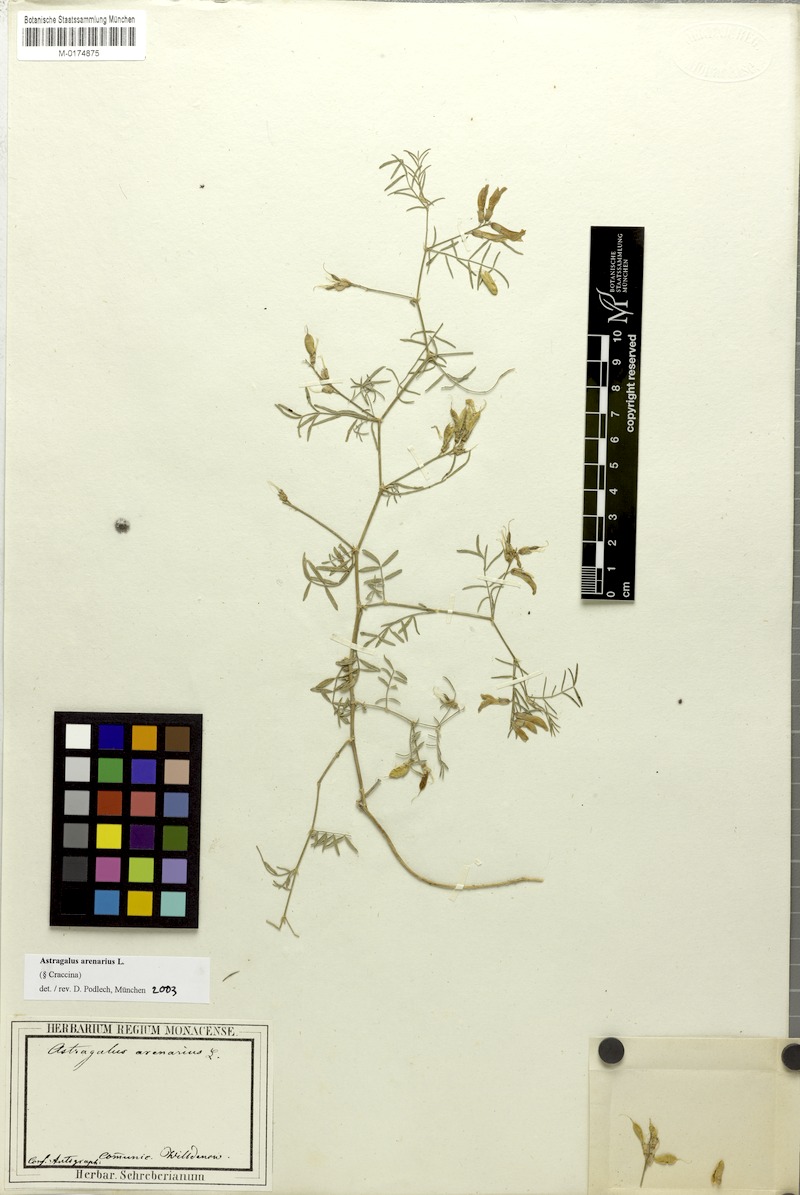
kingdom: Plantae
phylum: Tracheophyta
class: Magnoliopsida
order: Fabales
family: Fabaceae
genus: Astragalus
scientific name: Astragalus arenarius
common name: Arenarious milk-vetch
